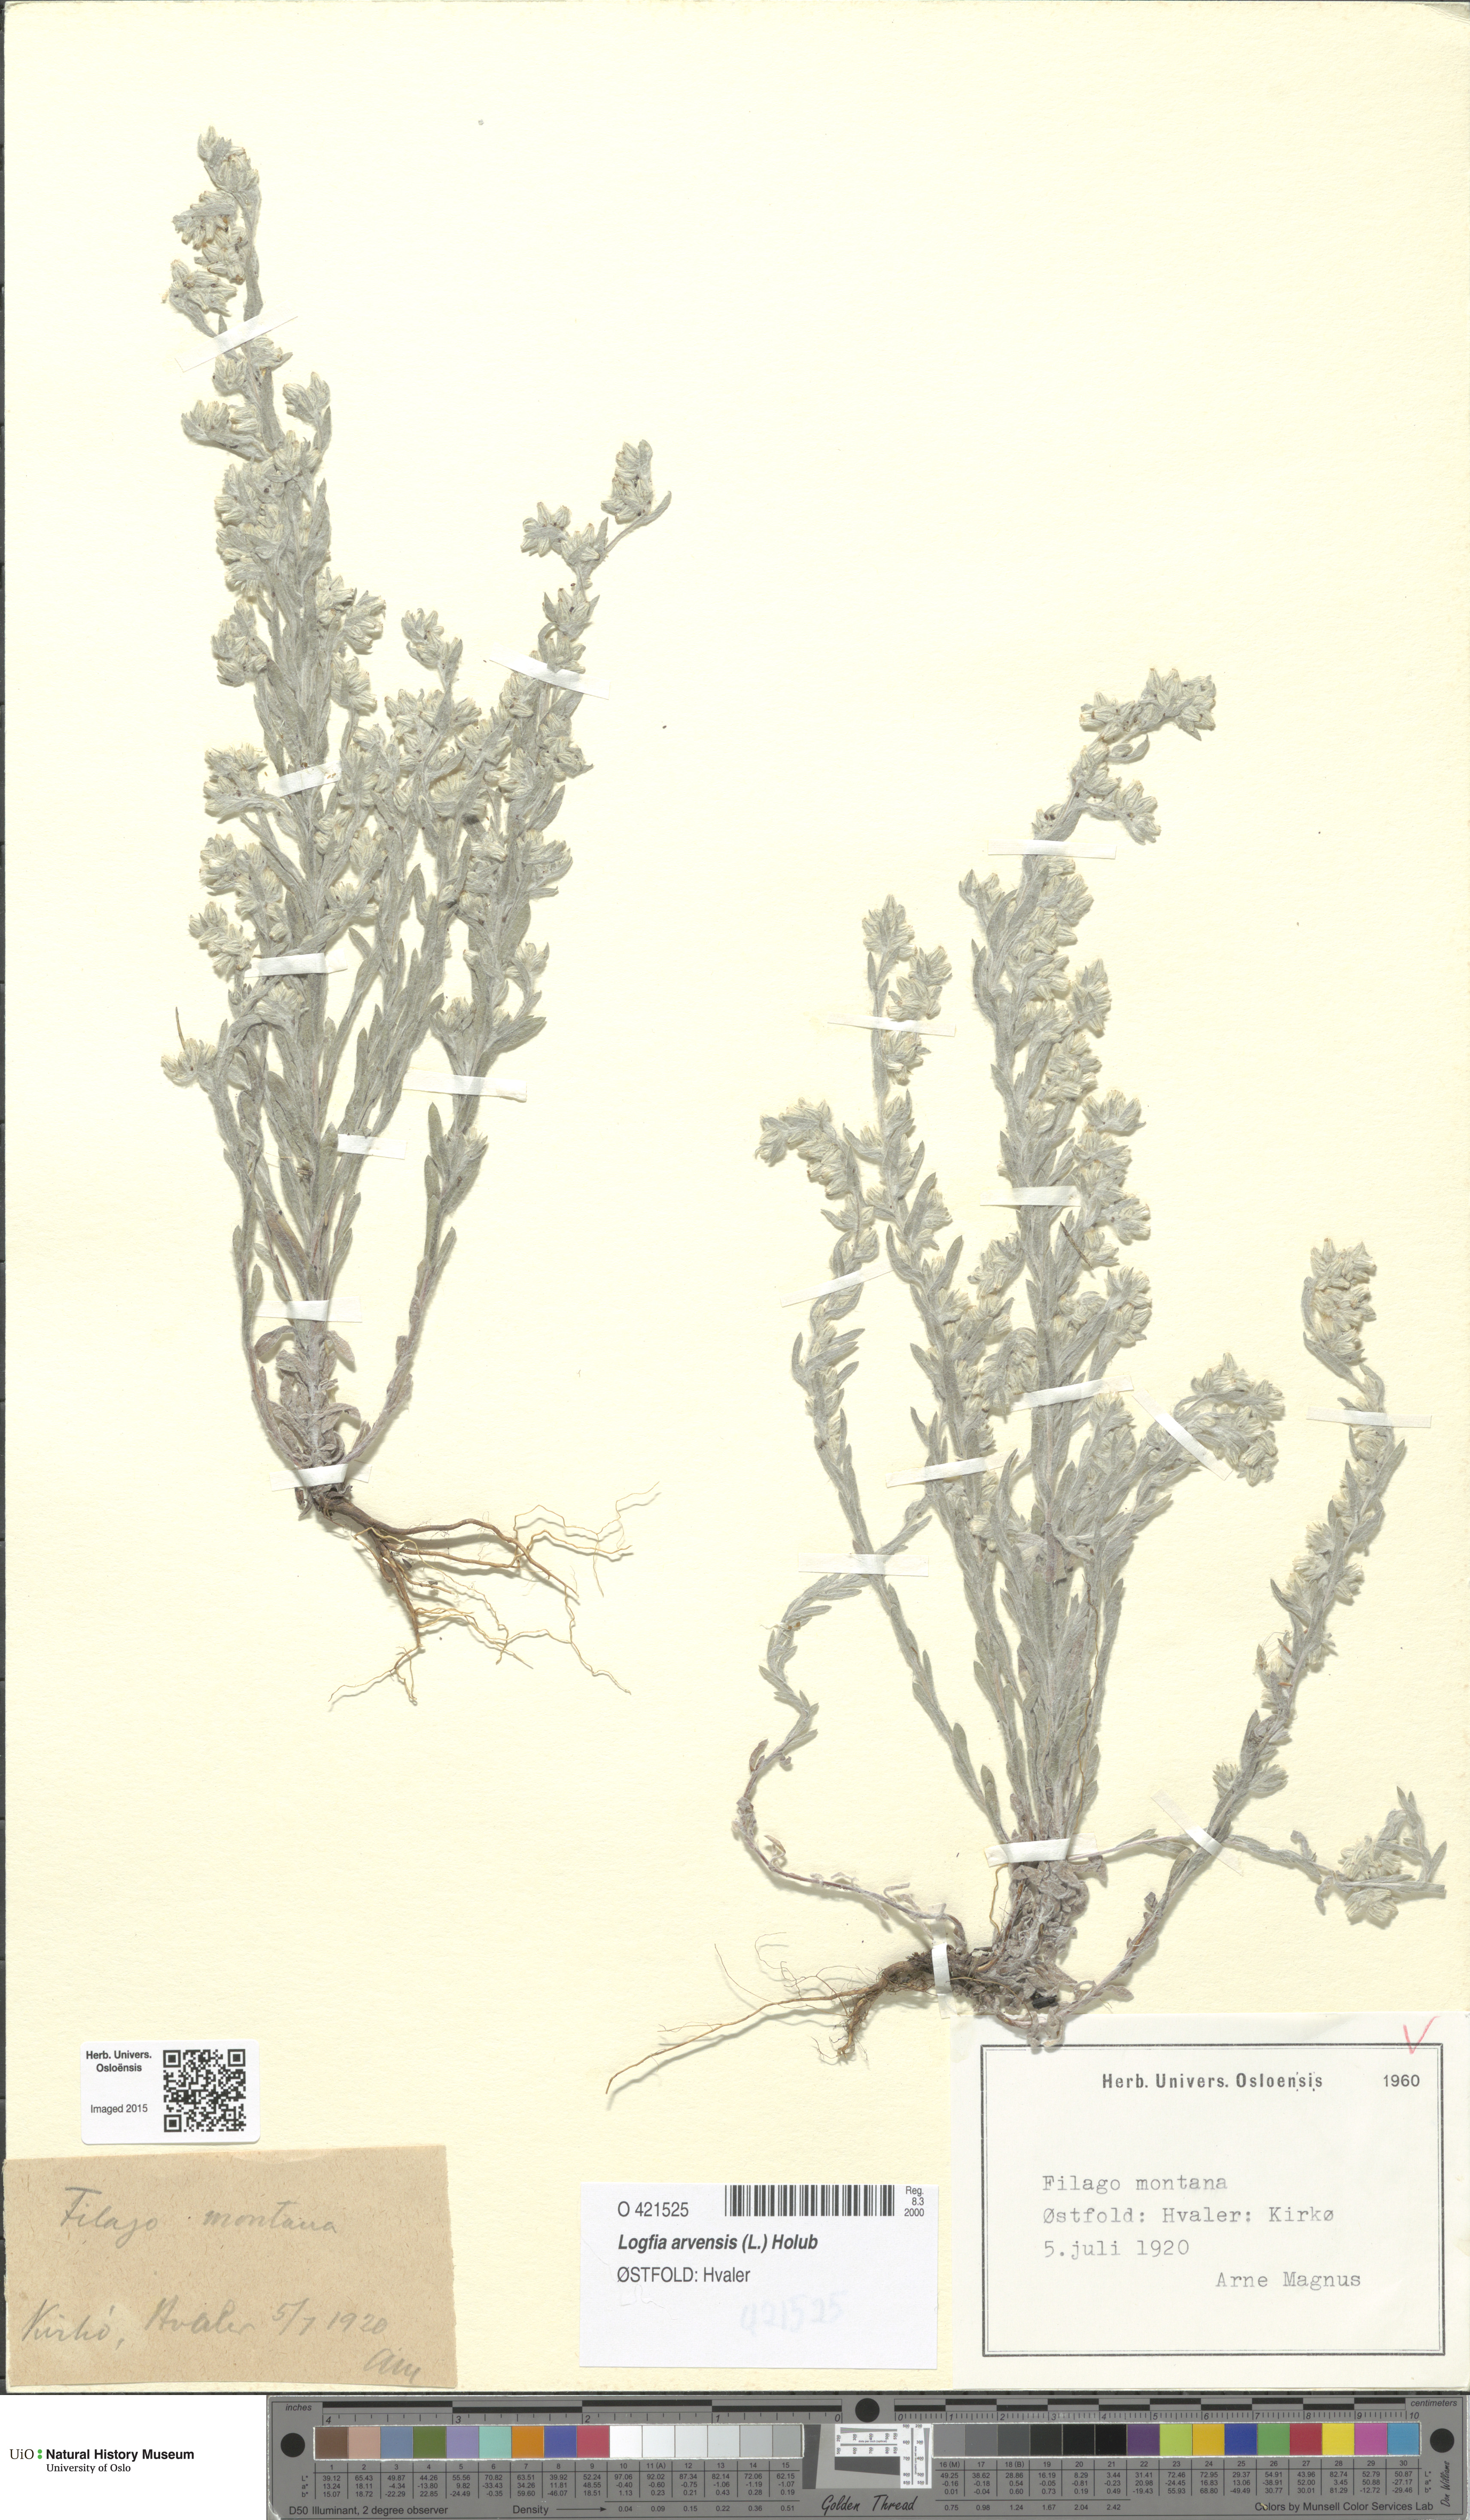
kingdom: Plantae
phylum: Tracheophyta
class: Magnoliopsida
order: Asterales
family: Asteraceae
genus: Filago
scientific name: Filago arvensis
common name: Field cudweed
